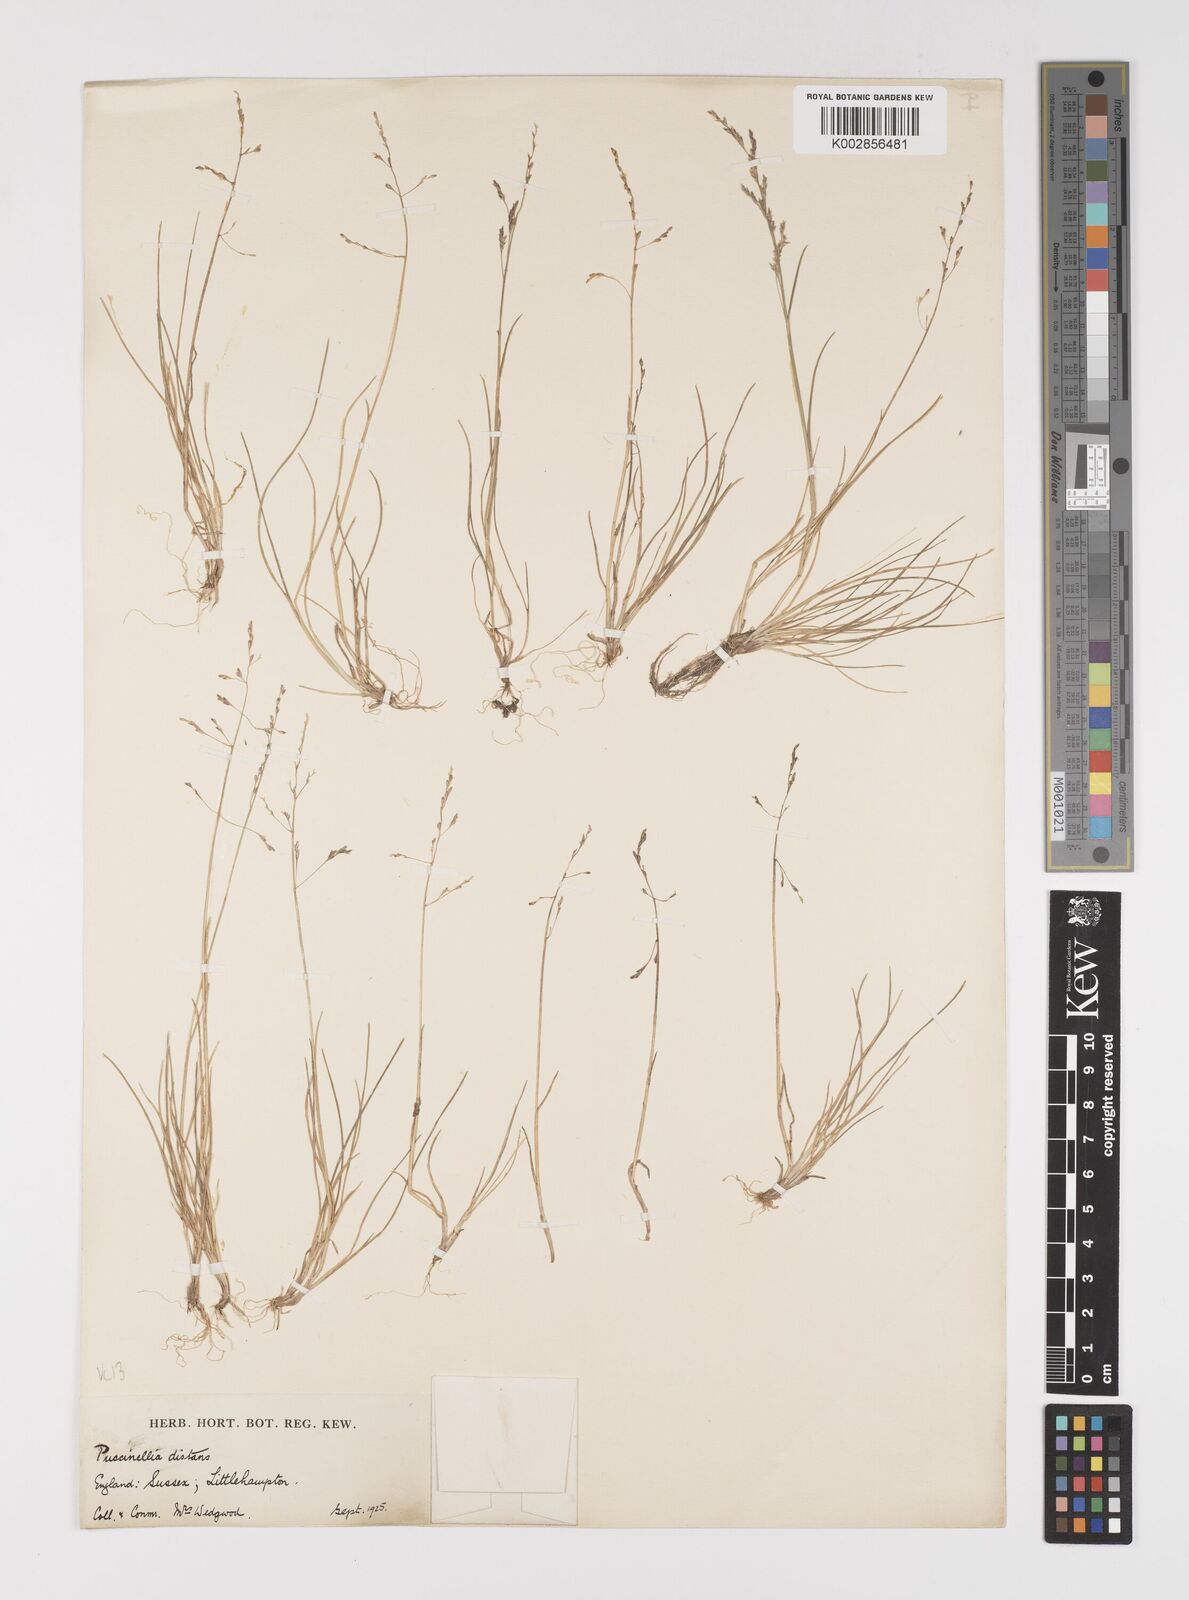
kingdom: Plantae
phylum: Tracheophyta
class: Liliopsida
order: Poales
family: Poaceae
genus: Puccinellia
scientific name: Puccinellia distans
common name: Weeping alkaligrass
